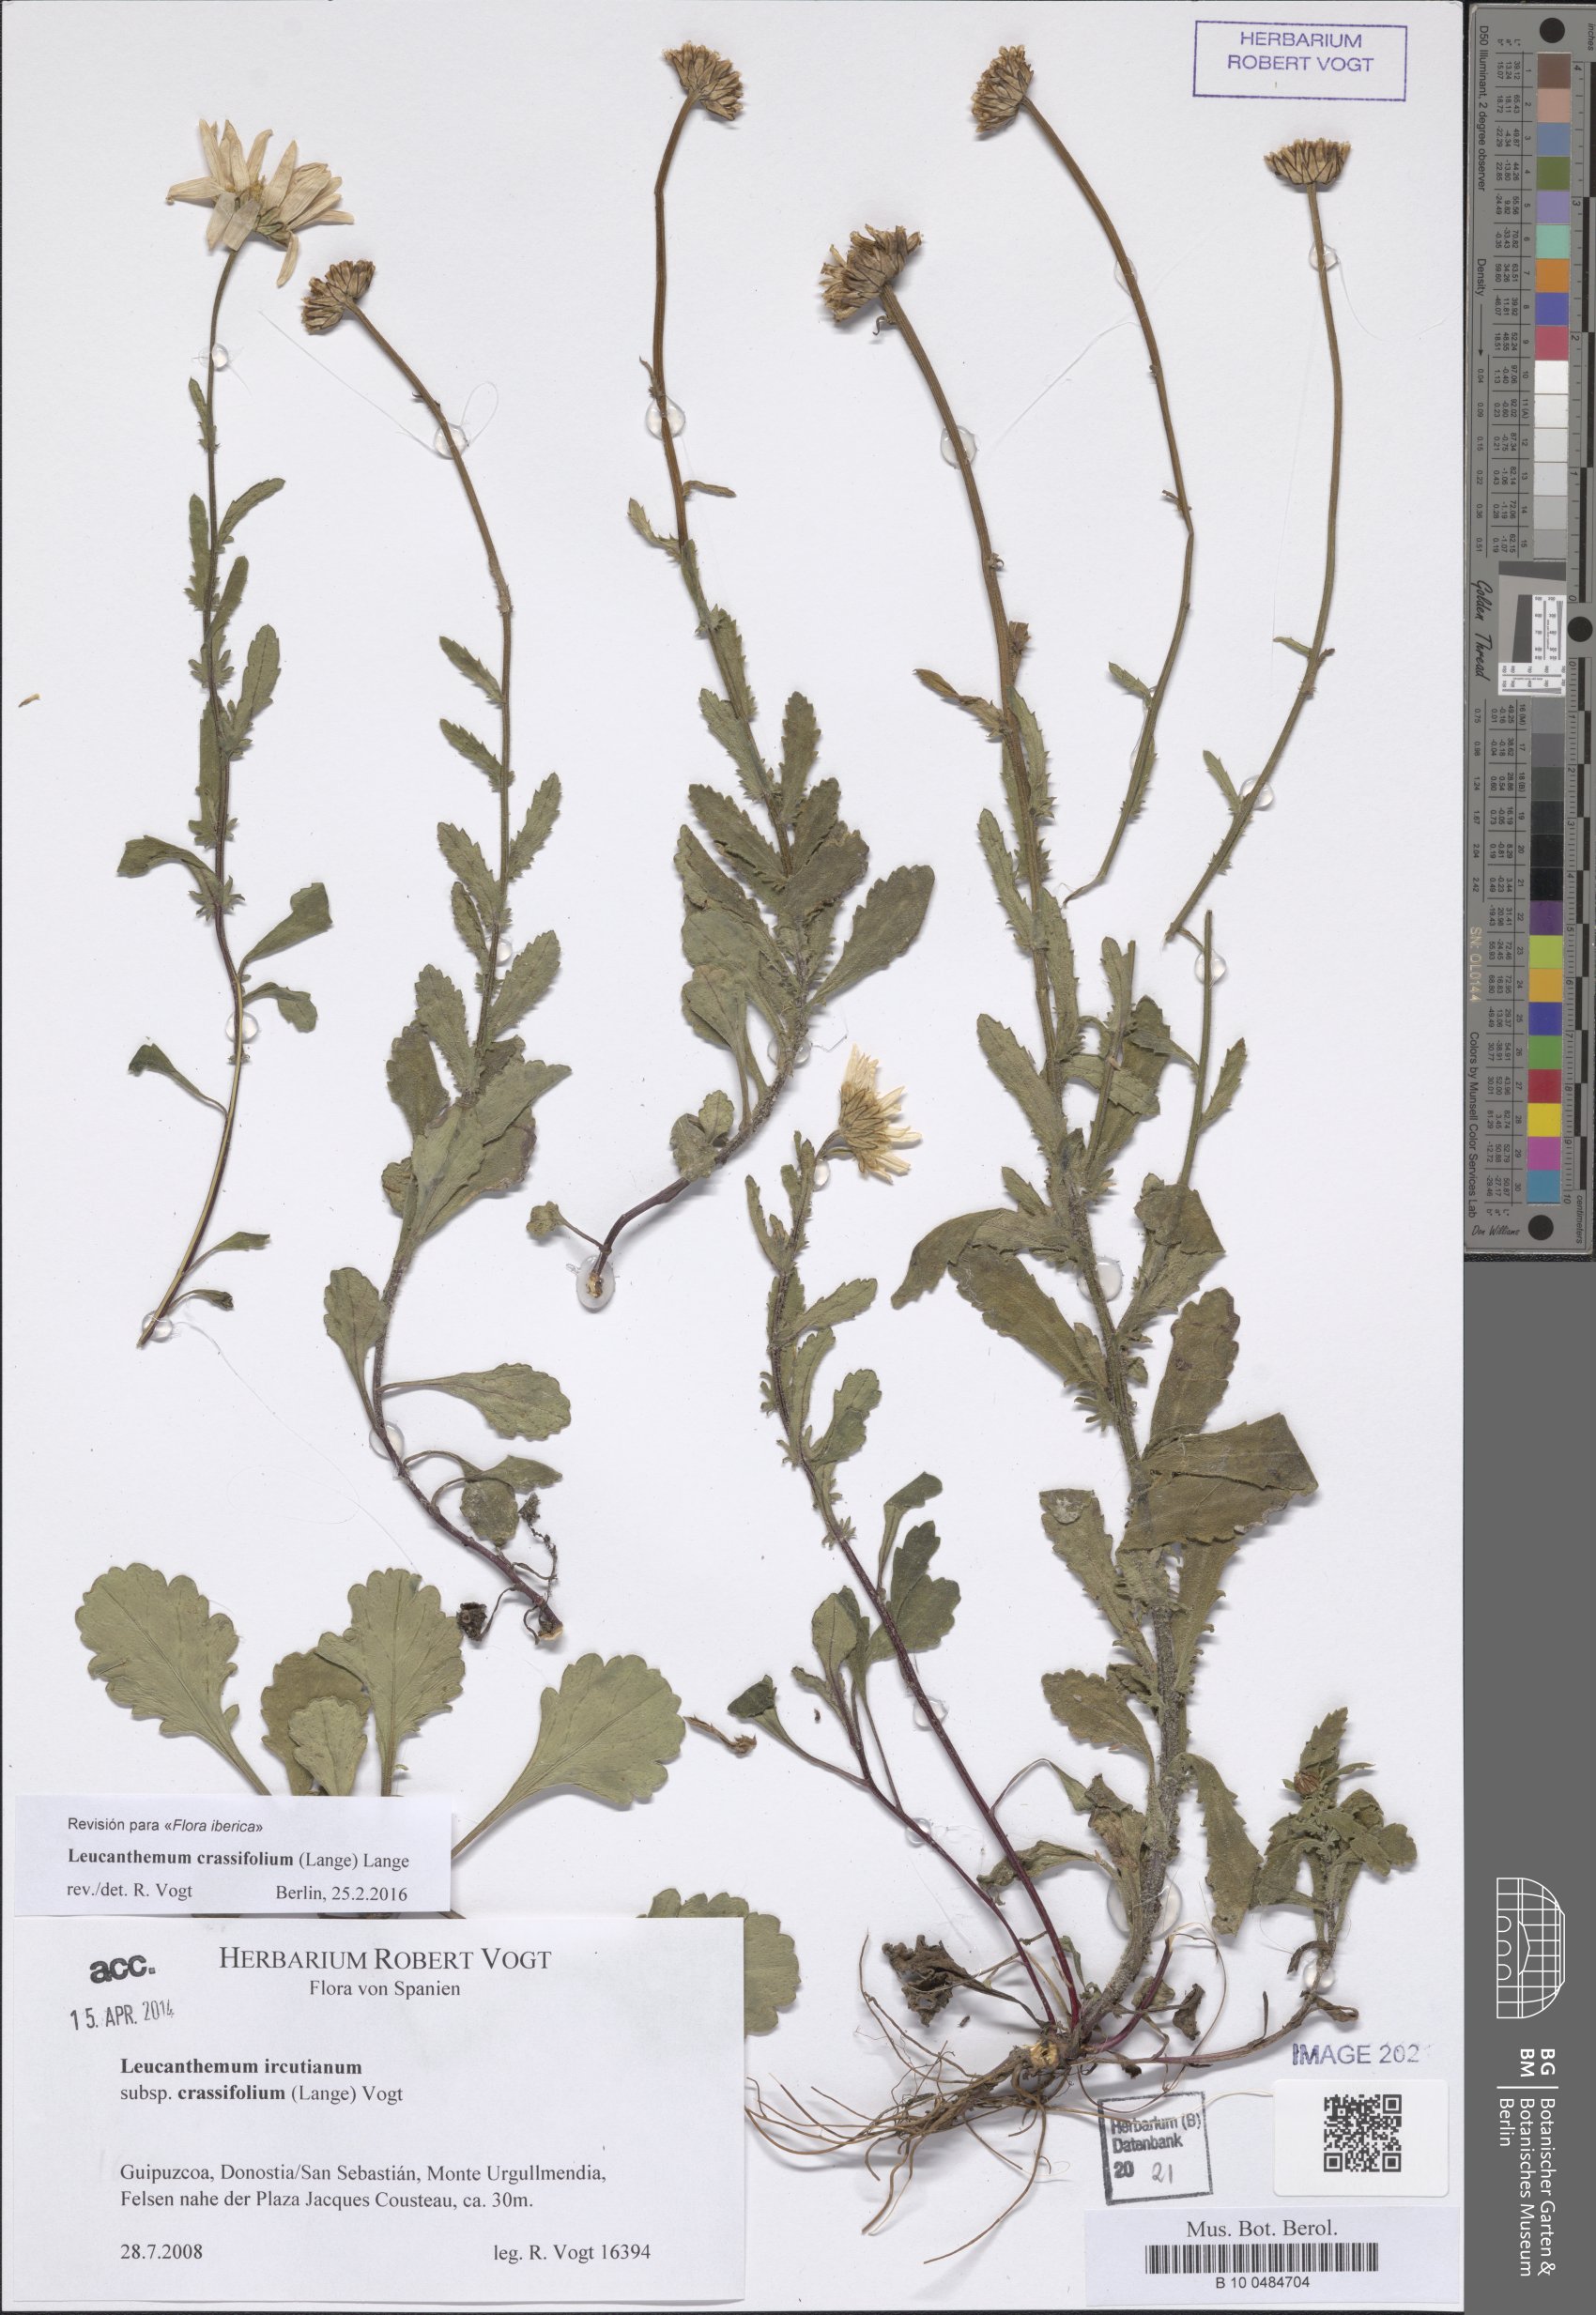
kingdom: Plantae
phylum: Tracheophyta
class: Magnoliopsida
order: Asterales
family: Asteraceae
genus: Leucanthemum
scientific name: Leucanthemum crassifolium
